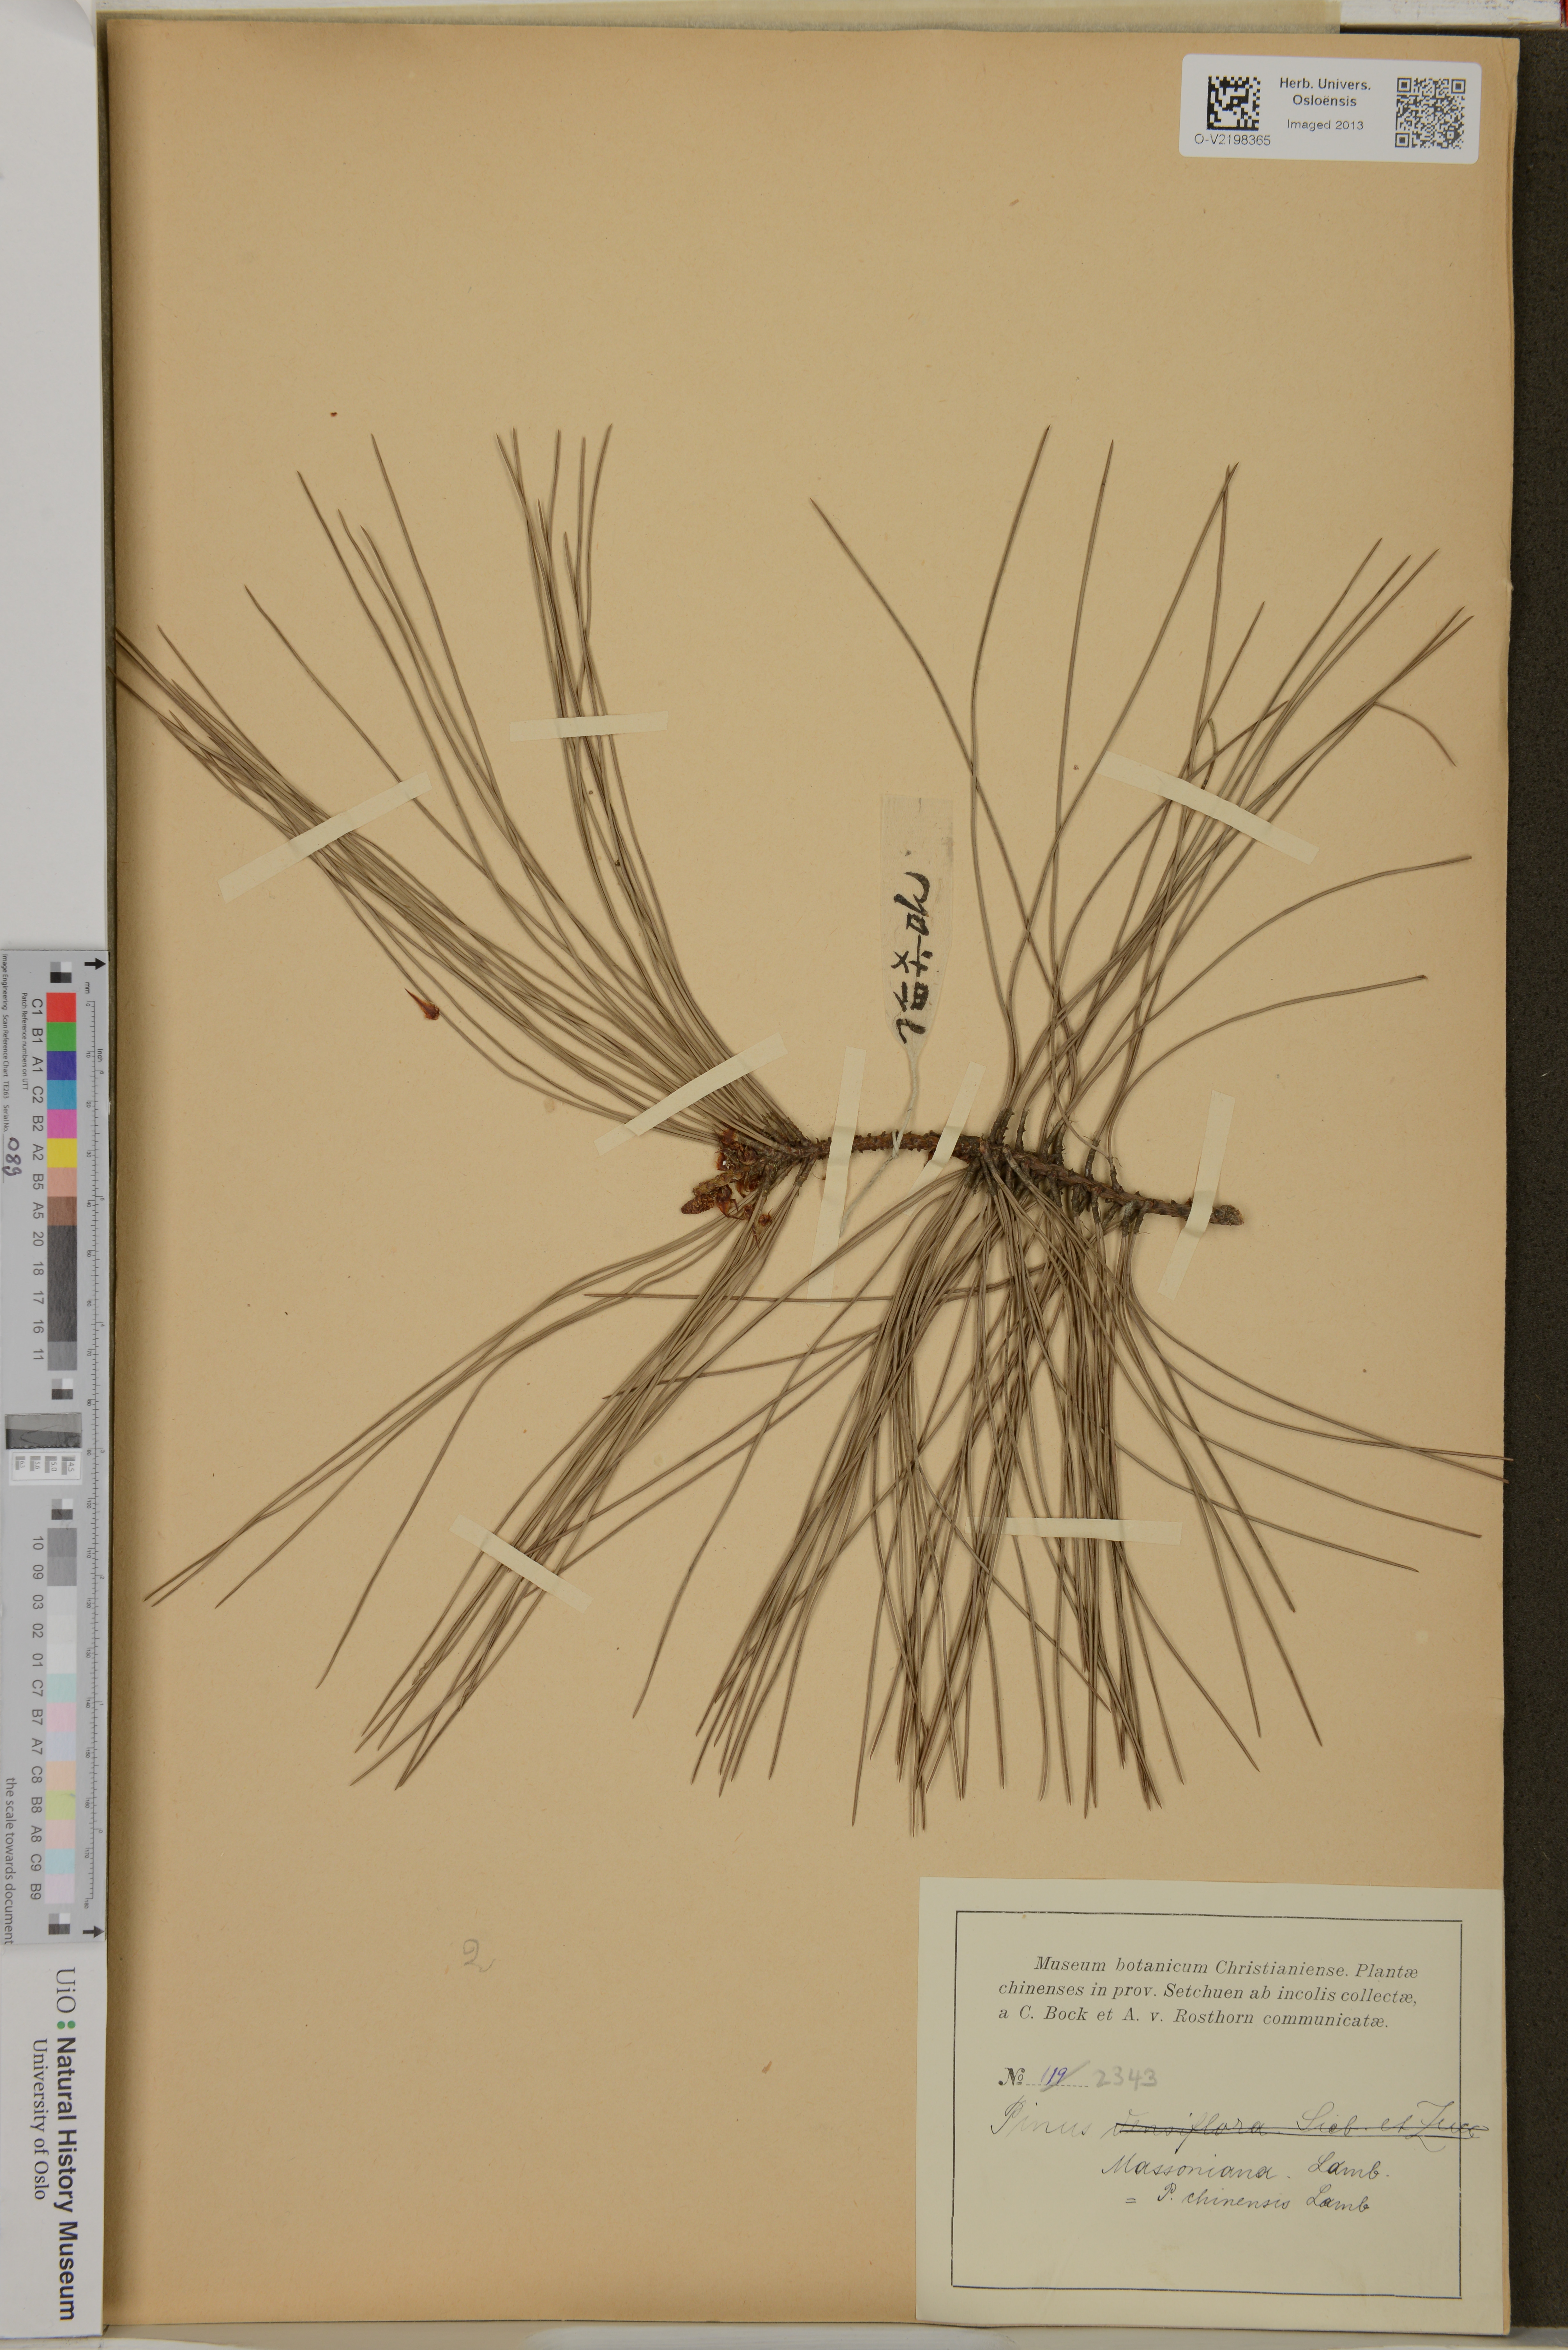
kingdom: Plantae
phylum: Tracheophyta
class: Pinopsida
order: Pinales
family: Pinaceae
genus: Pinus
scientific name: Pinus massoniana
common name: Chinese red pine
